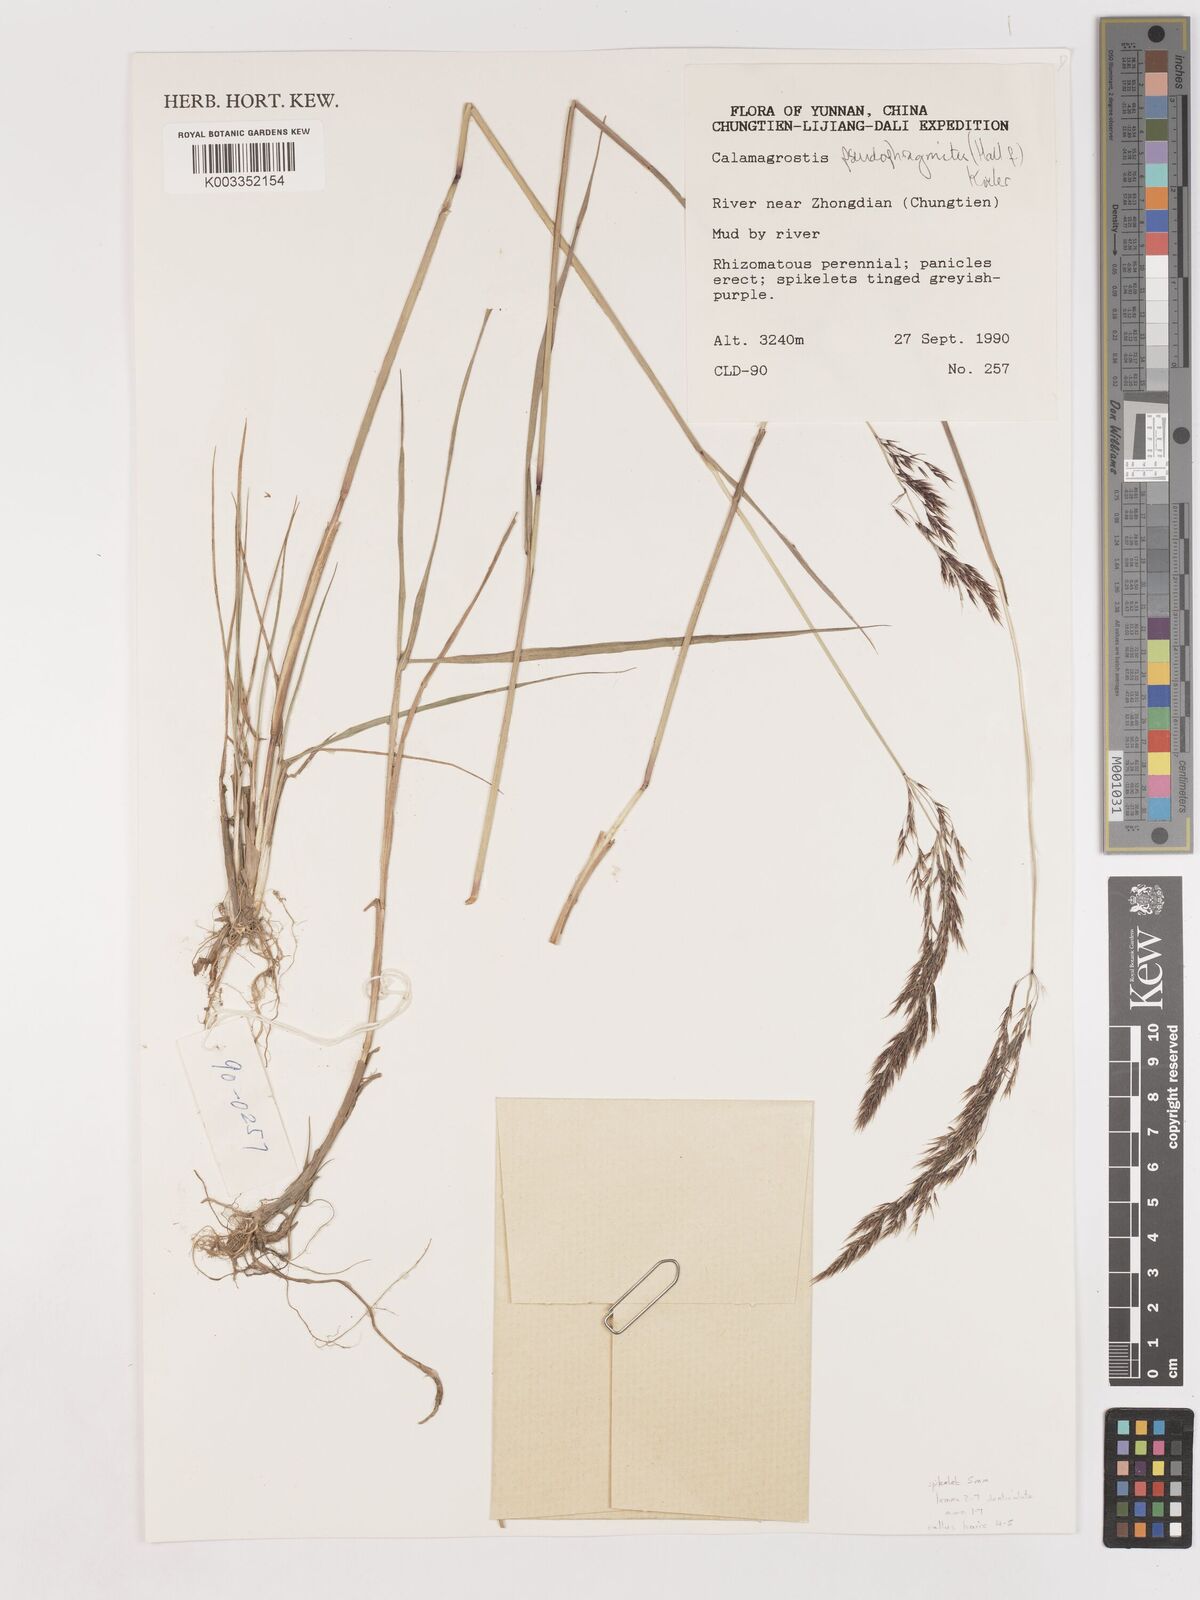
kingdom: Plantae
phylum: Tracheophyta
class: Liliopsida
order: Poales
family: Poaceae
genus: Calamagrostis
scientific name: Calamagrostis pseudophragmites
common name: Coastal small-reed
